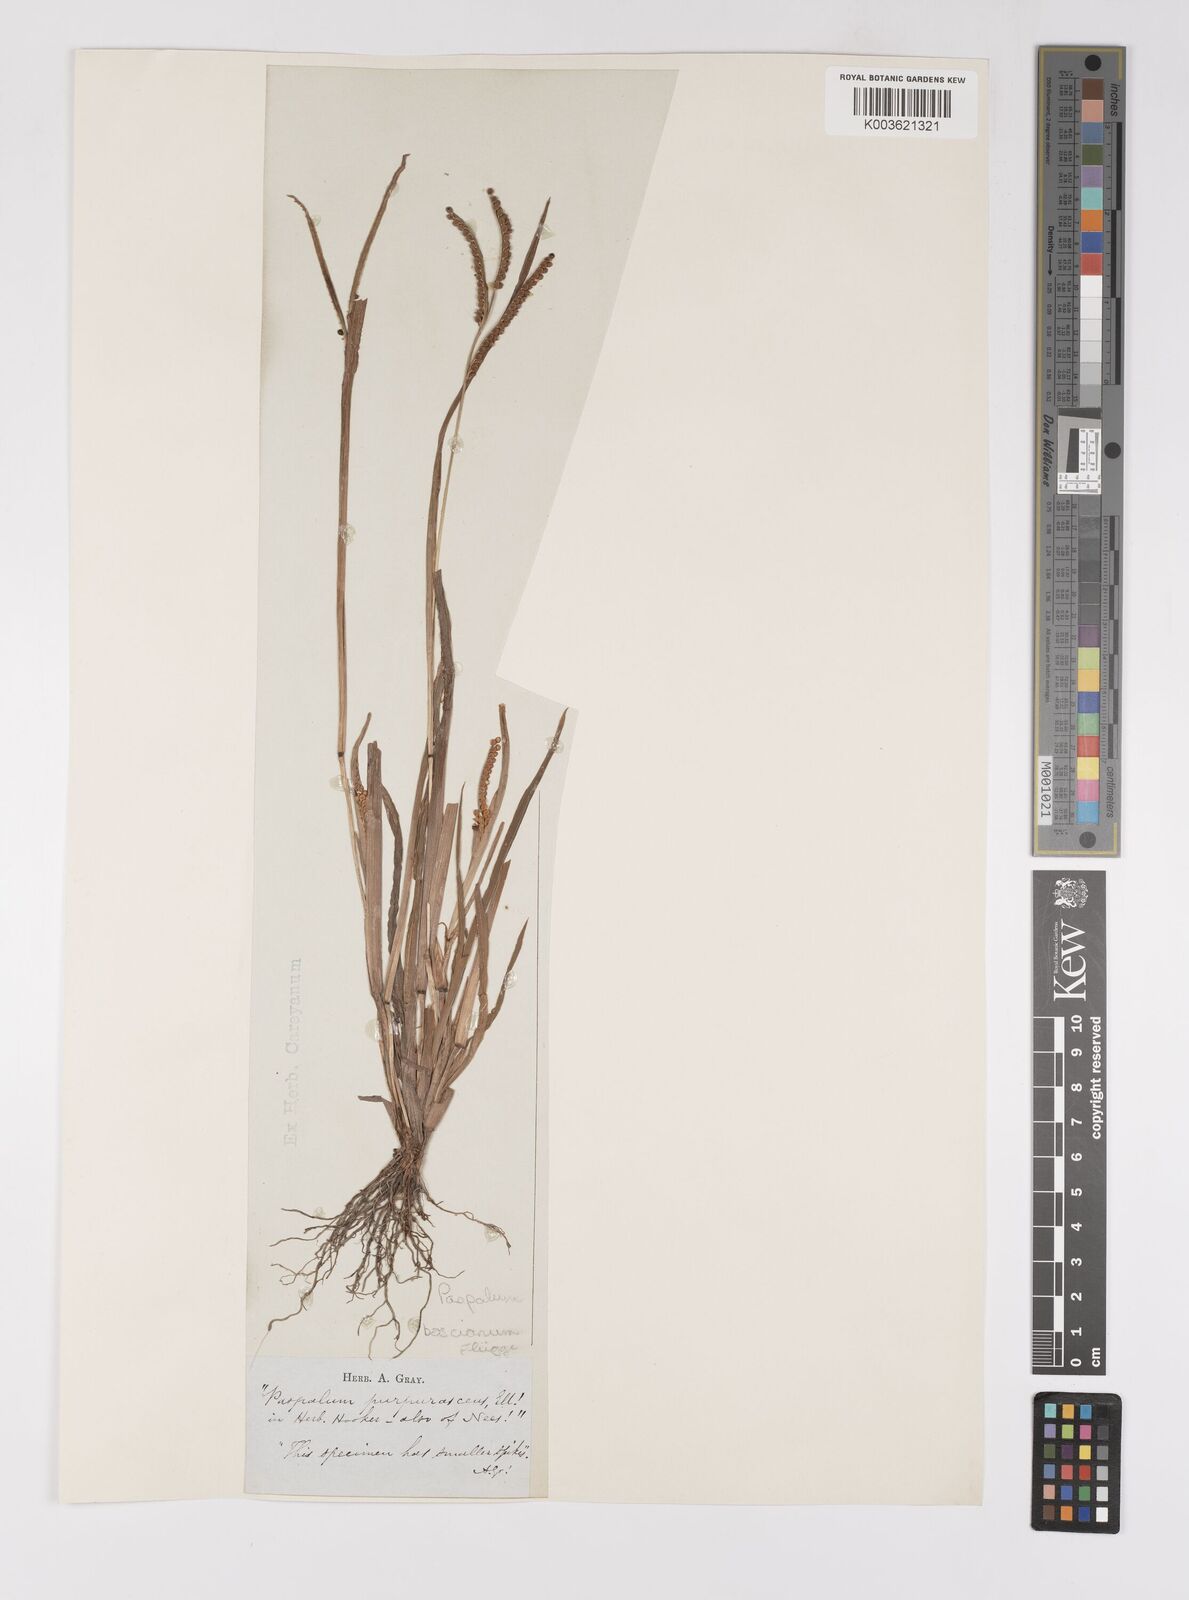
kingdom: Plantae
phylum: Tracheophyta
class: Liliopsida
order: Poales
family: Poaceae
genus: Paspalum
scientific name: Paspalum scrobiculatum
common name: Kodo millet
